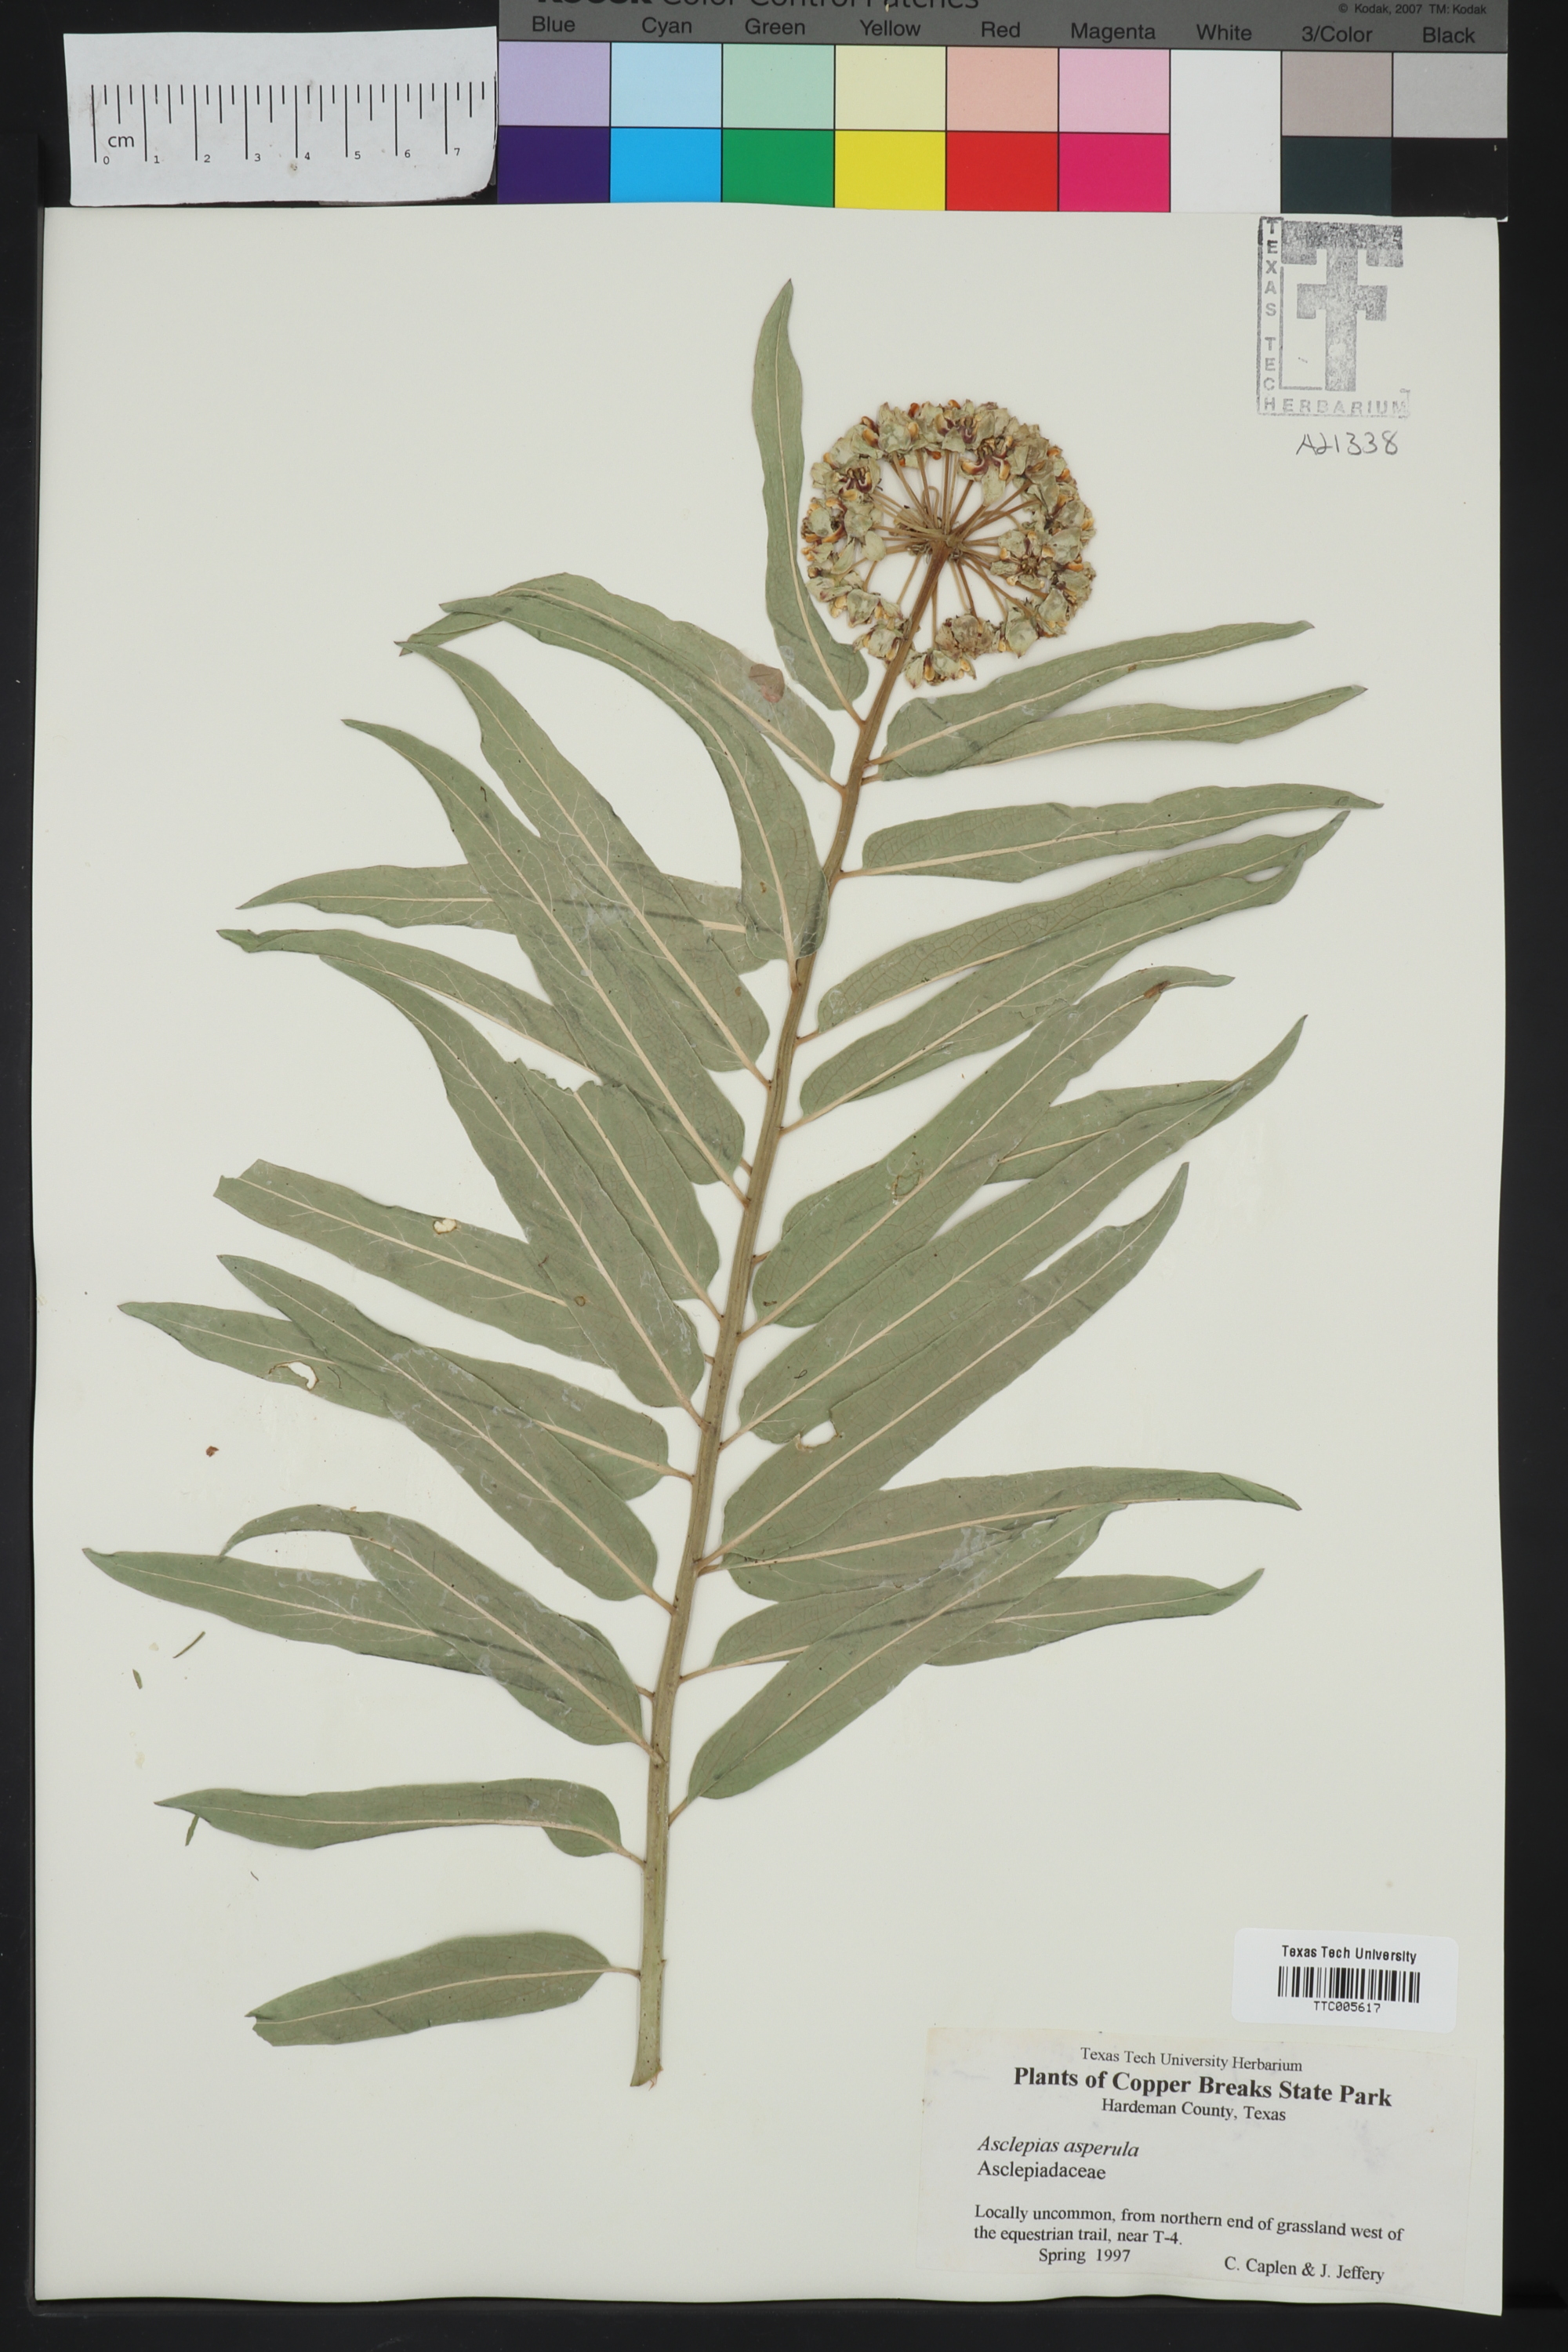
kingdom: Plantae
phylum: Tracheophyta
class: Magnoliopsida
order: Gentianales
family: Apocynaceae
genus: Asclepias
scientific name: Asclepias asperula
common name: Antelope horns
